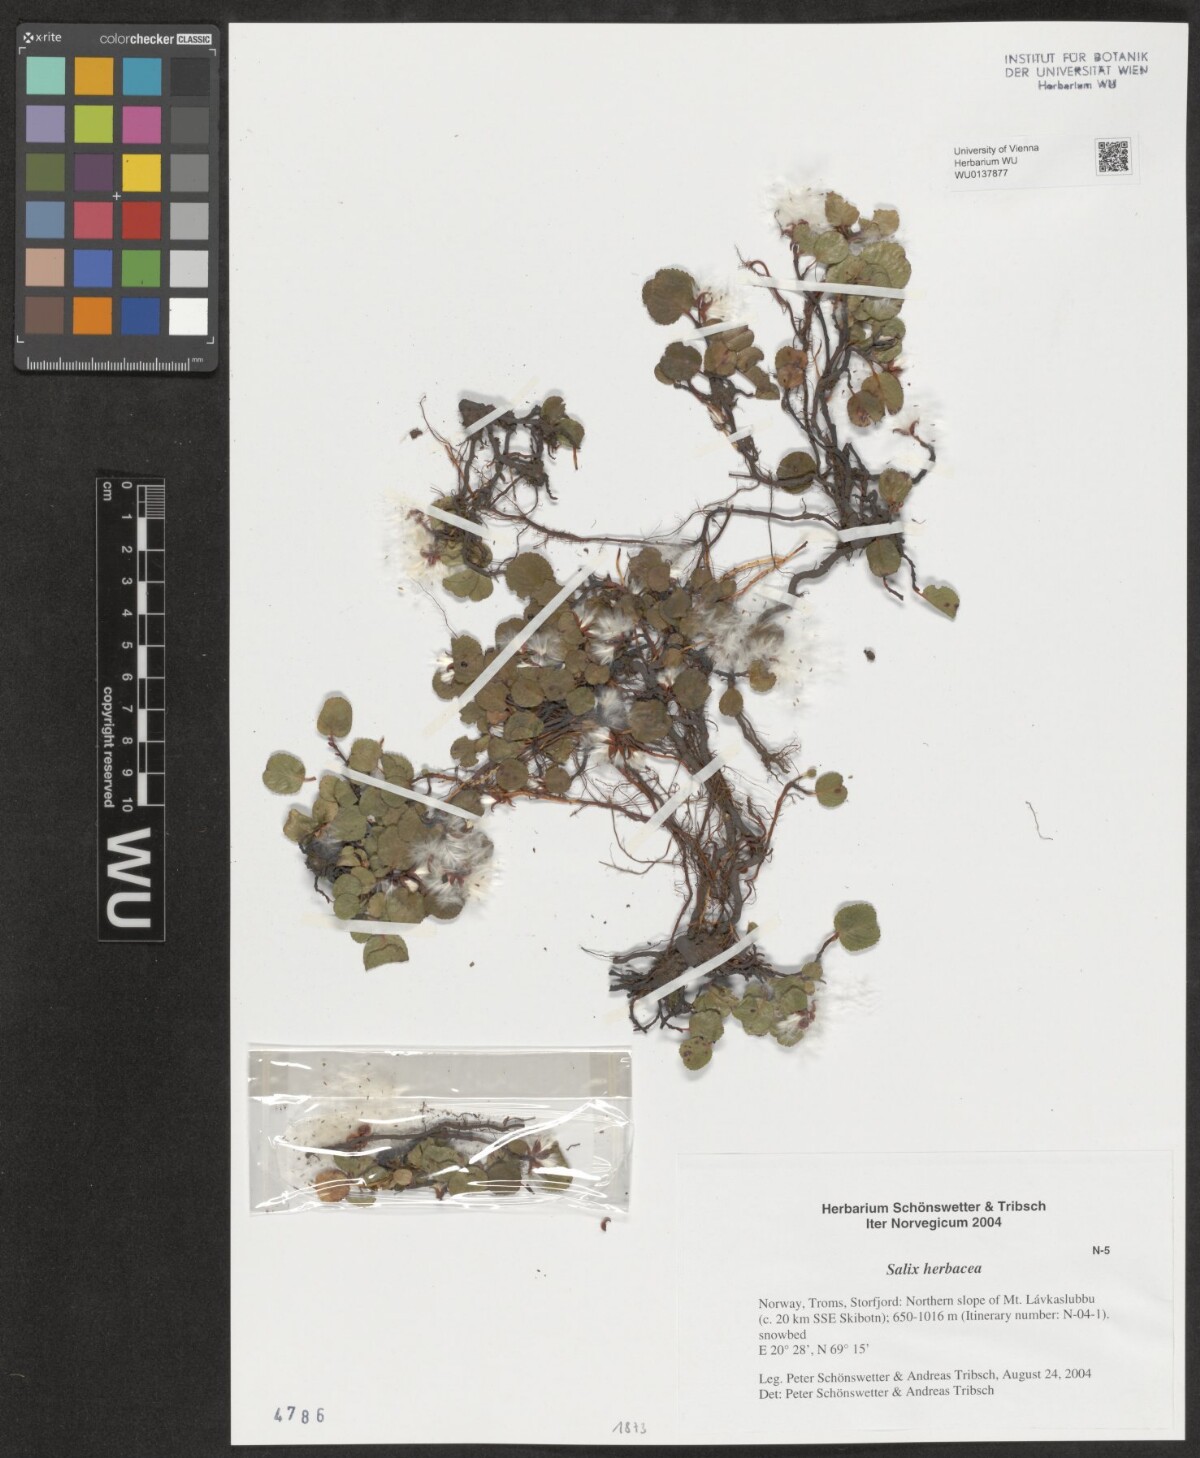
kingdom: Plantae
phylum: Tracheophyta
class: Magnoliopsida
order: Malpighiales
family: Salicaceae
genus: Salix
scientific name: Salix herbacea
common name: Dwarf willow
